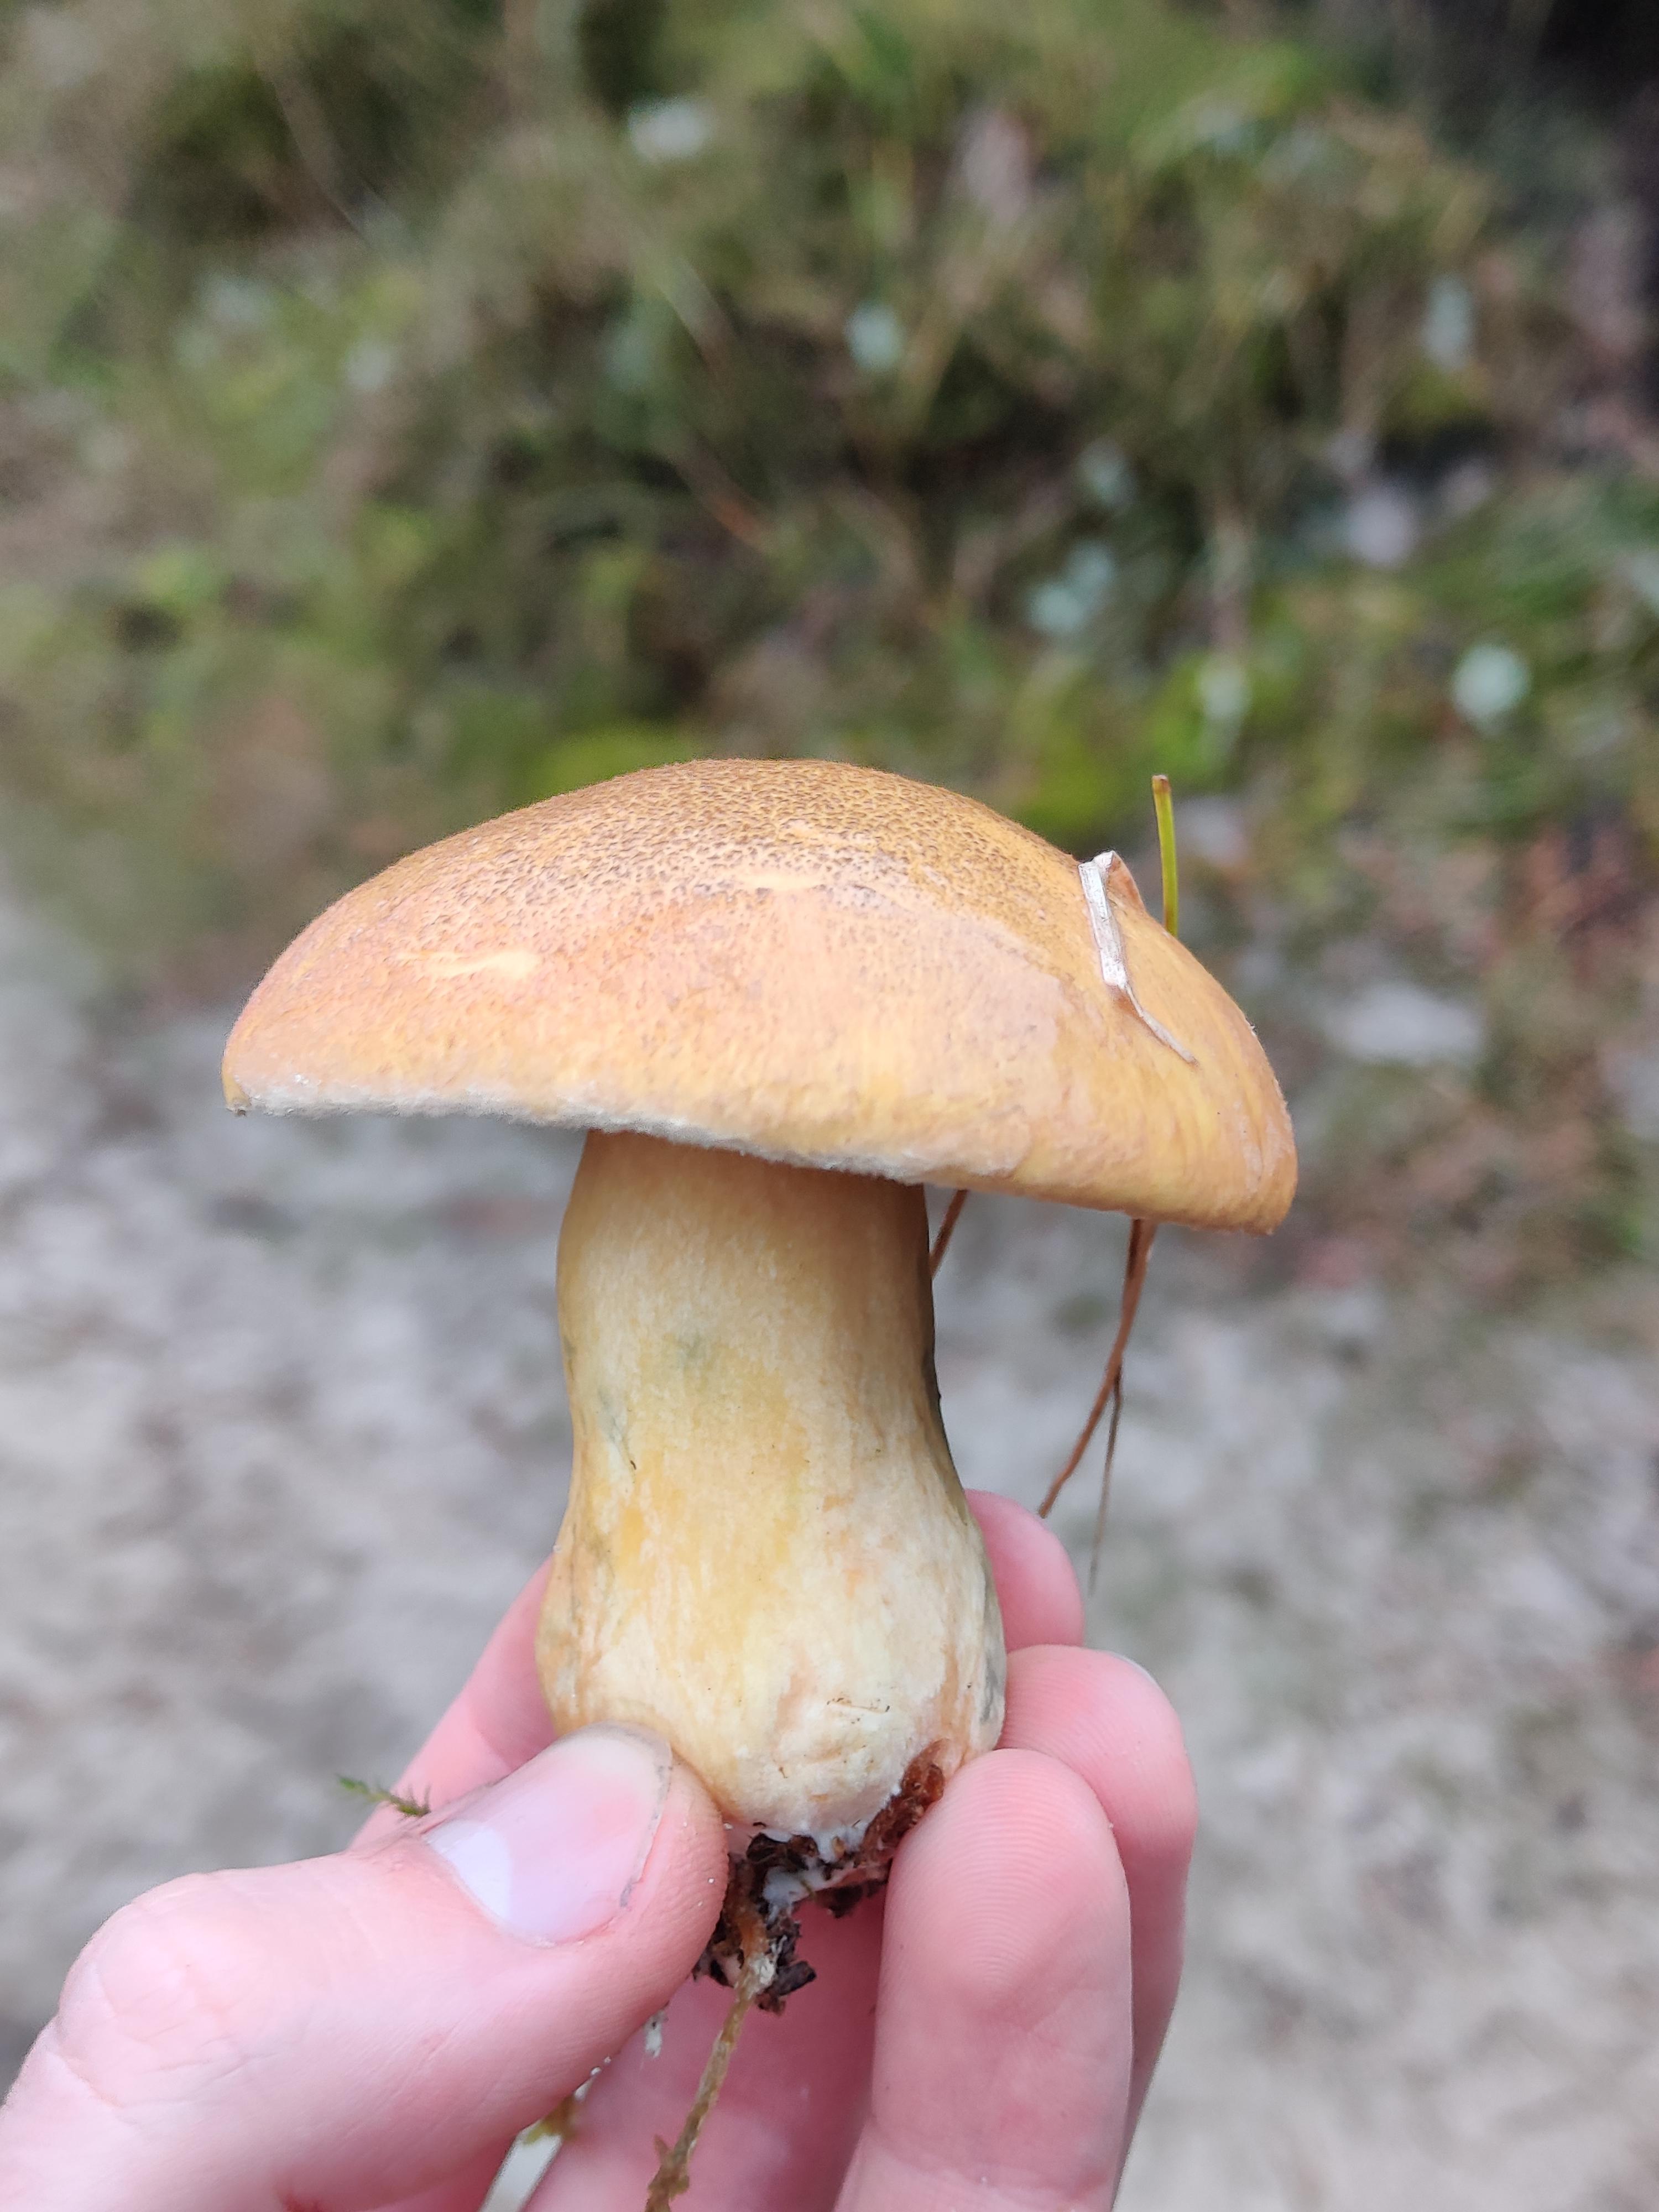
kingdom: Fungi
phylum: Basidiomycota
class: Agaricomycetes
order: Boletales
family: Suillaceae
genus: Suillus
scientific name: Suillus variegatus
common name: broget slimrørhat
